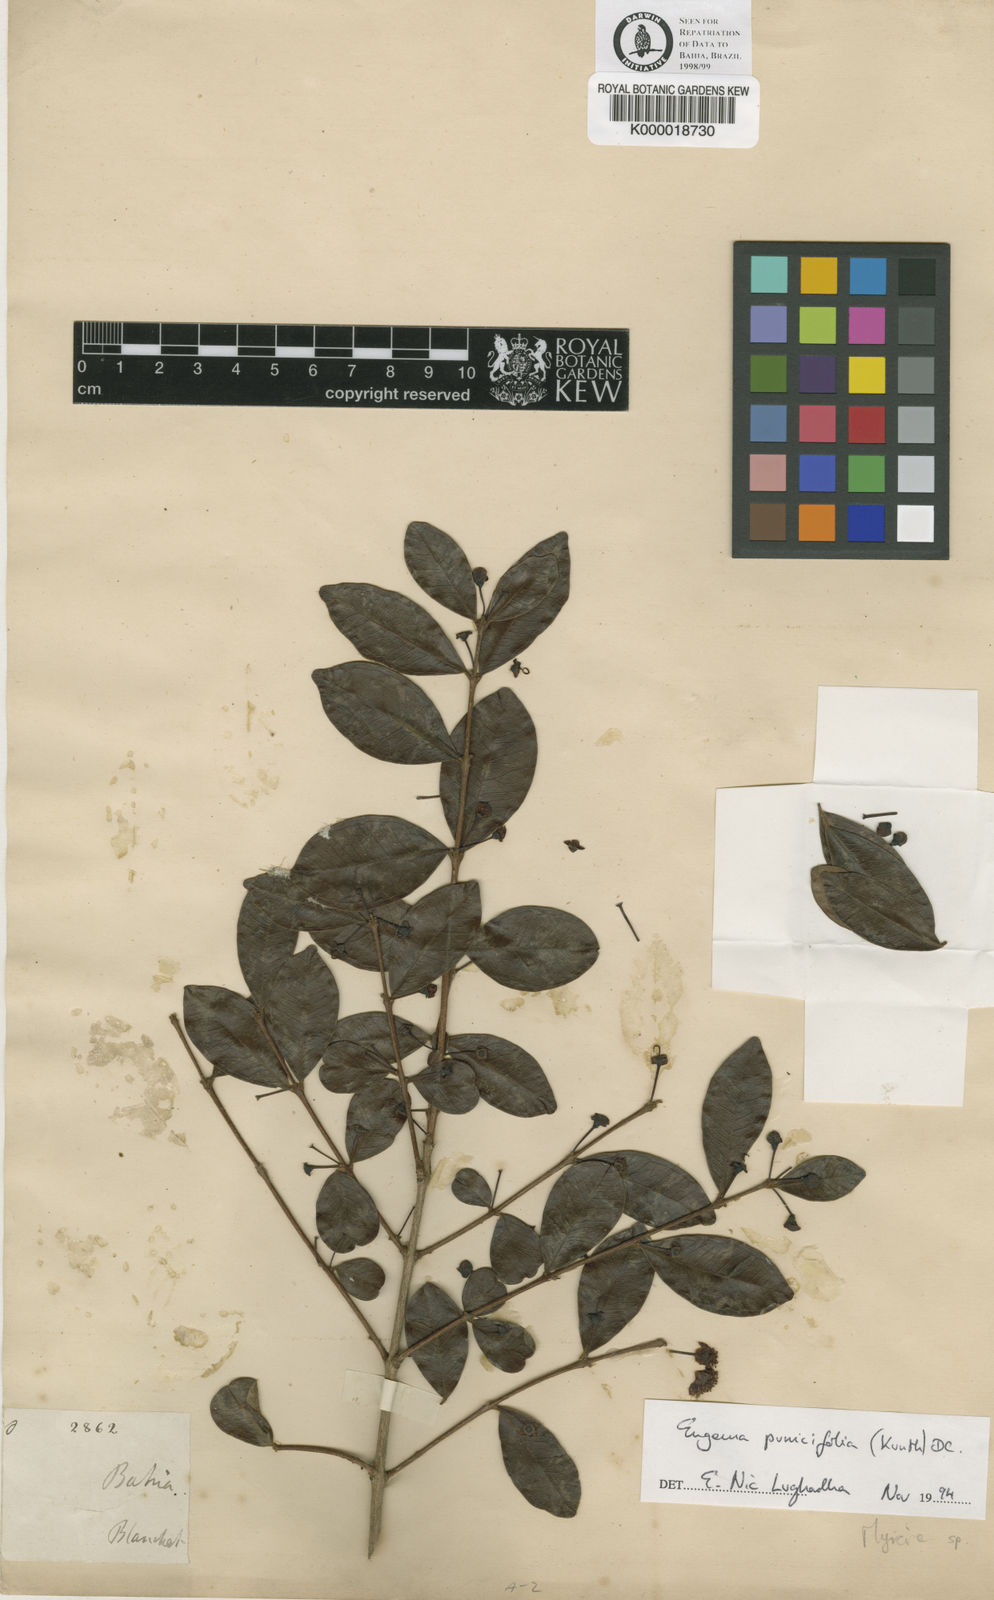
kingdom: Plantae
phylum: Tracheophyta
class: Magnoliopsida
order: Myrtales
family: Myrtaceae
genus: Eugenia
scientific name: Eugenia punicifolia
